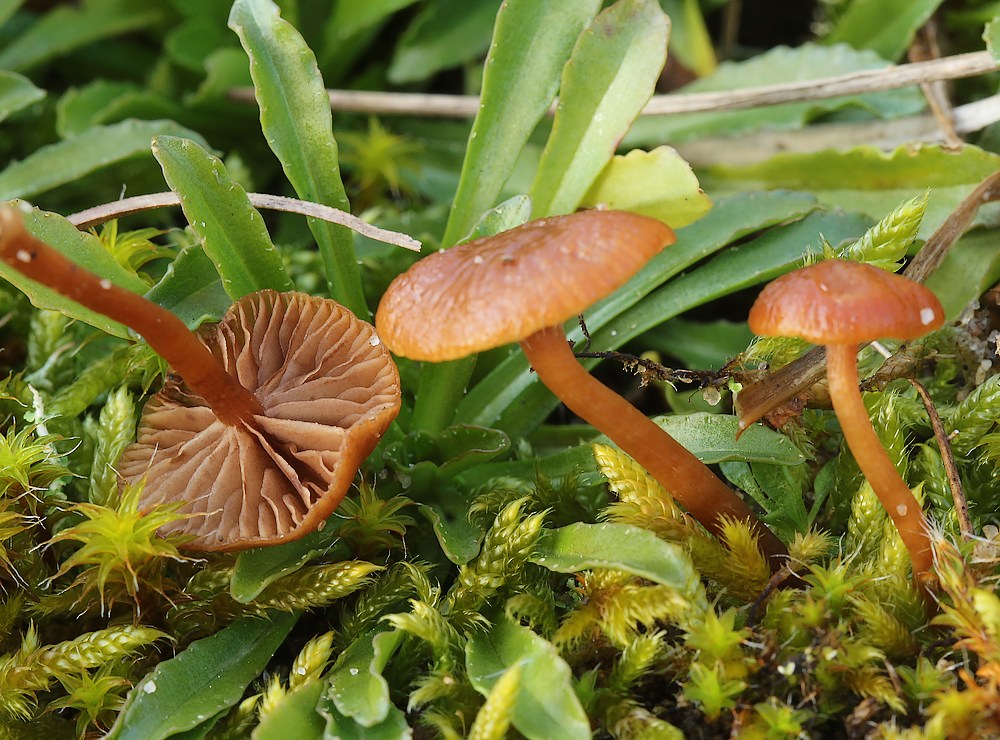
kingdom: Fungi
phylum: Basidiomycota
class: Agaricomycetes
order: Agaricales
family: Strophariaceae
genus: Deconica
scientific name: Deconica montana
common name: rødbrun stråhat
